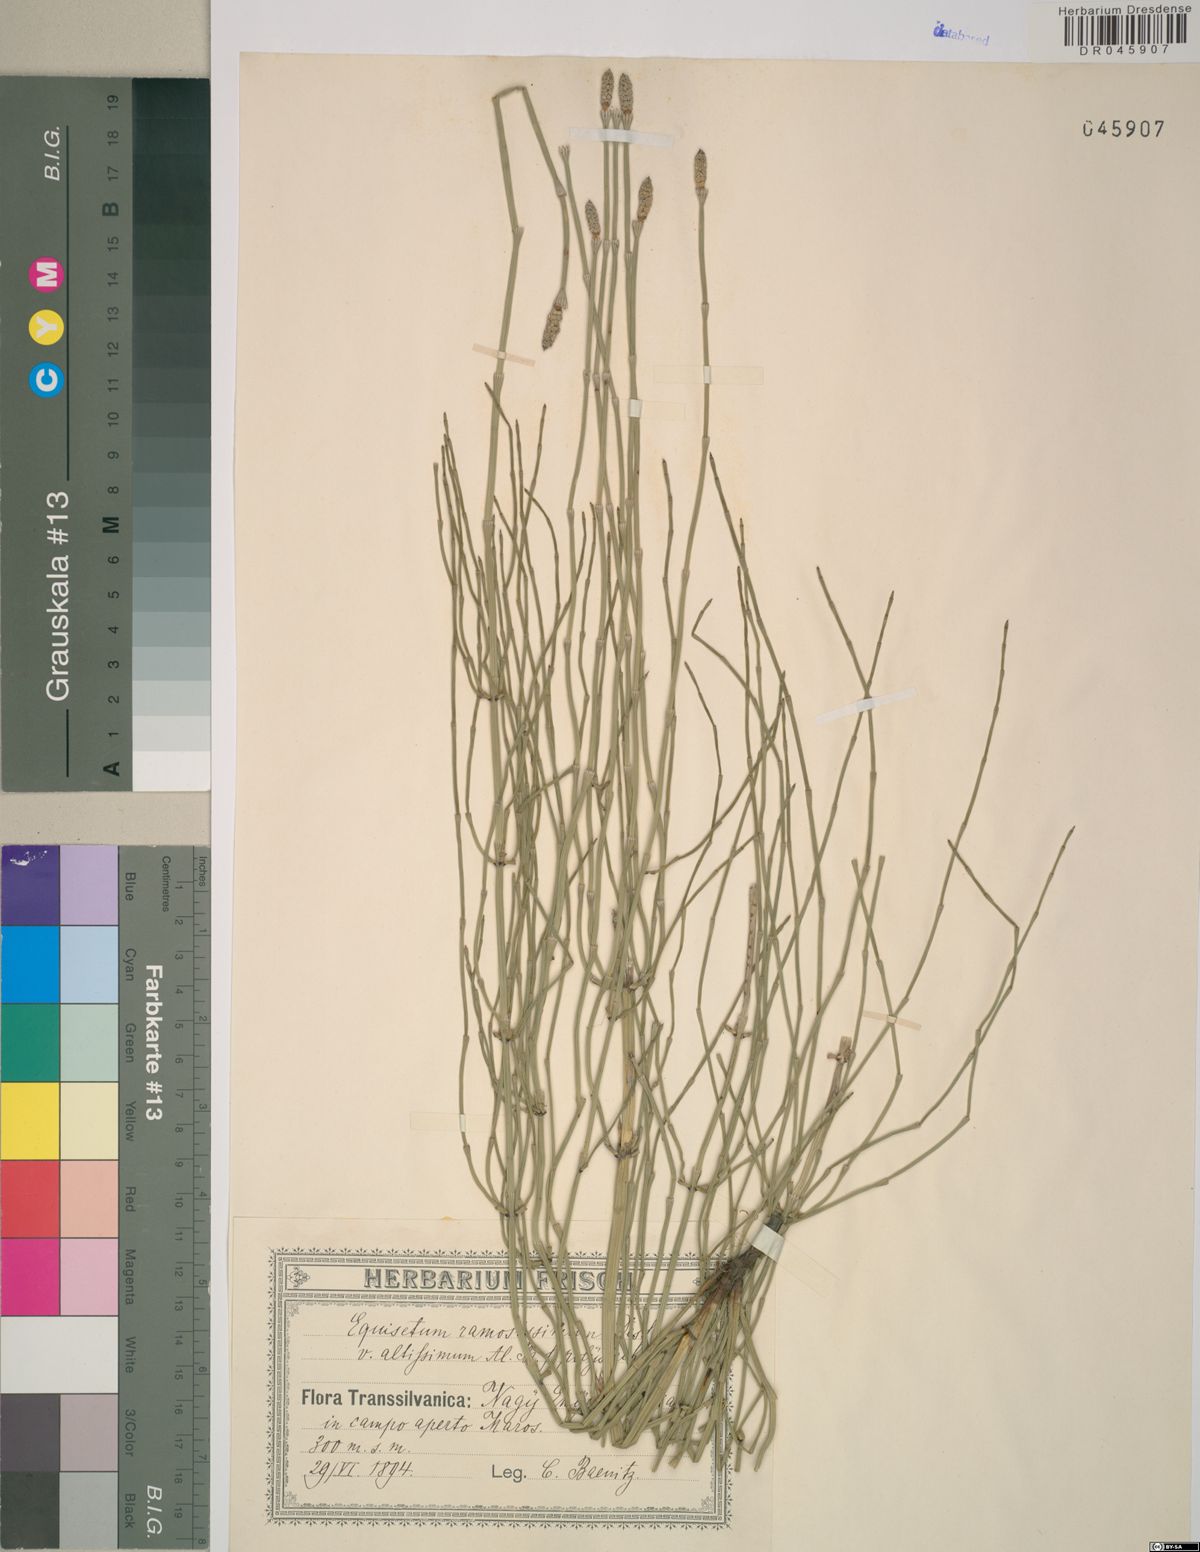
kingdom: Plantae
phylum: Tracheophyta
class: Polypodiopsida
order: Equisetales
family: Equisetaceae
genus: Equisetum
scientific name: Equisetum ramosissimum
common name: Branched horsetail
